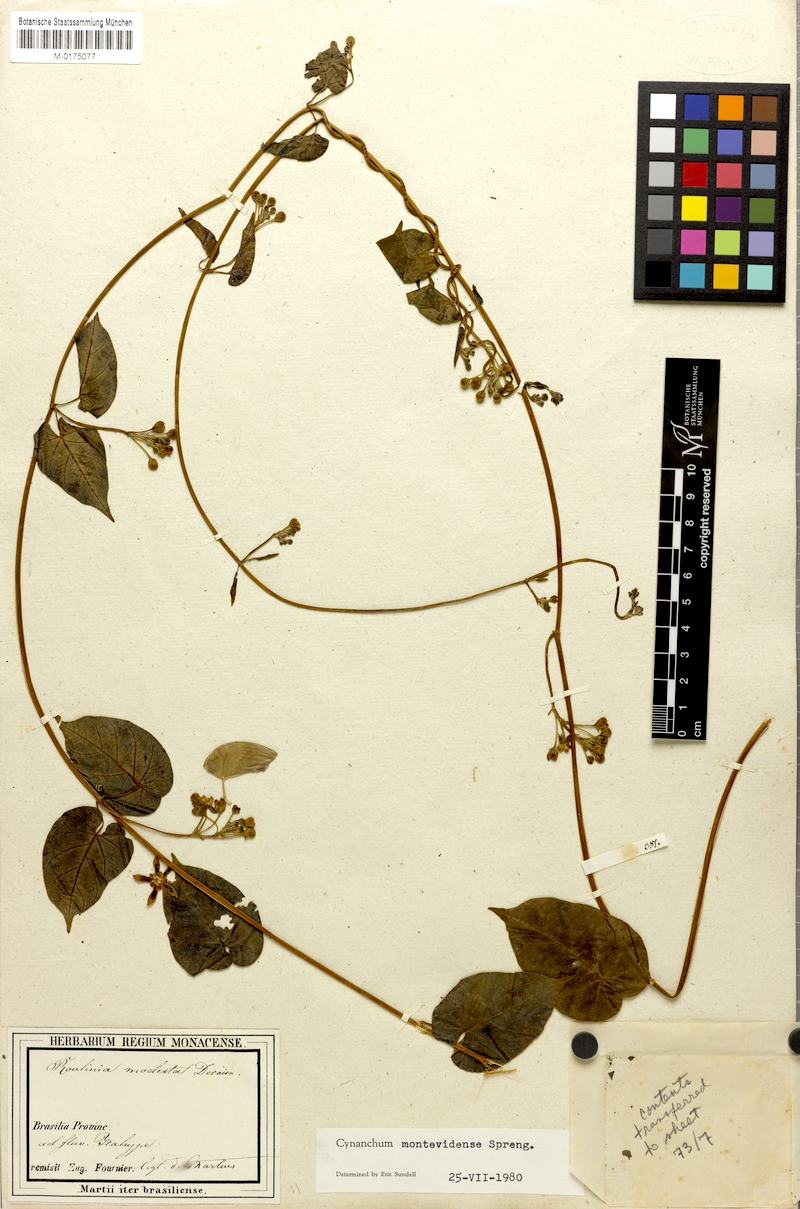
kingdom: Plantae
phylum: Tracheophyta
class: Magnoliopsida
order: Gentianales
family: Apocynaceae
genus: Cynanchum
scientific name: Cynanchum montevidense
